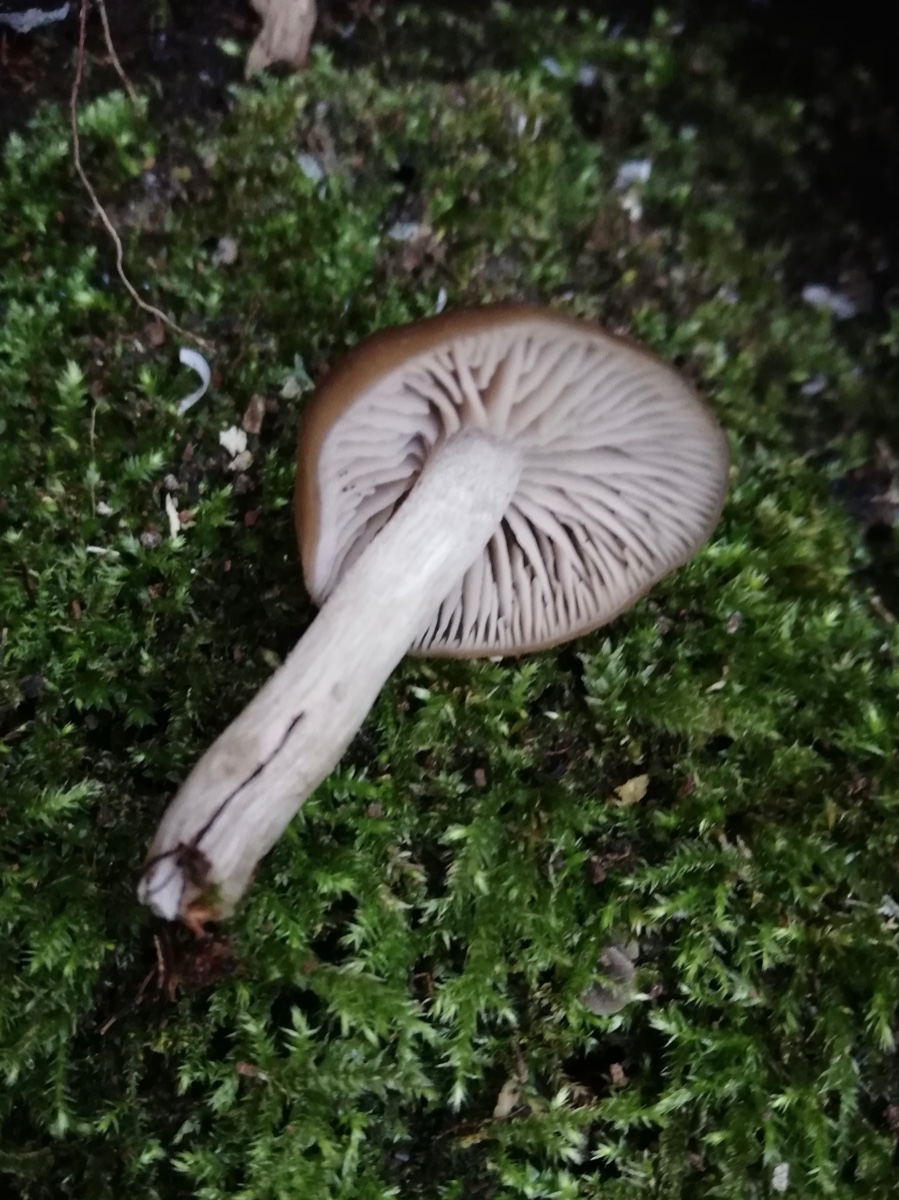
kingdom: Fungi
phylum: Basidiomycota
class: Agaricomycetes
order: Agaricales
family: Entolomataceae
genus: Entoloma
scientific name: Entoloma
